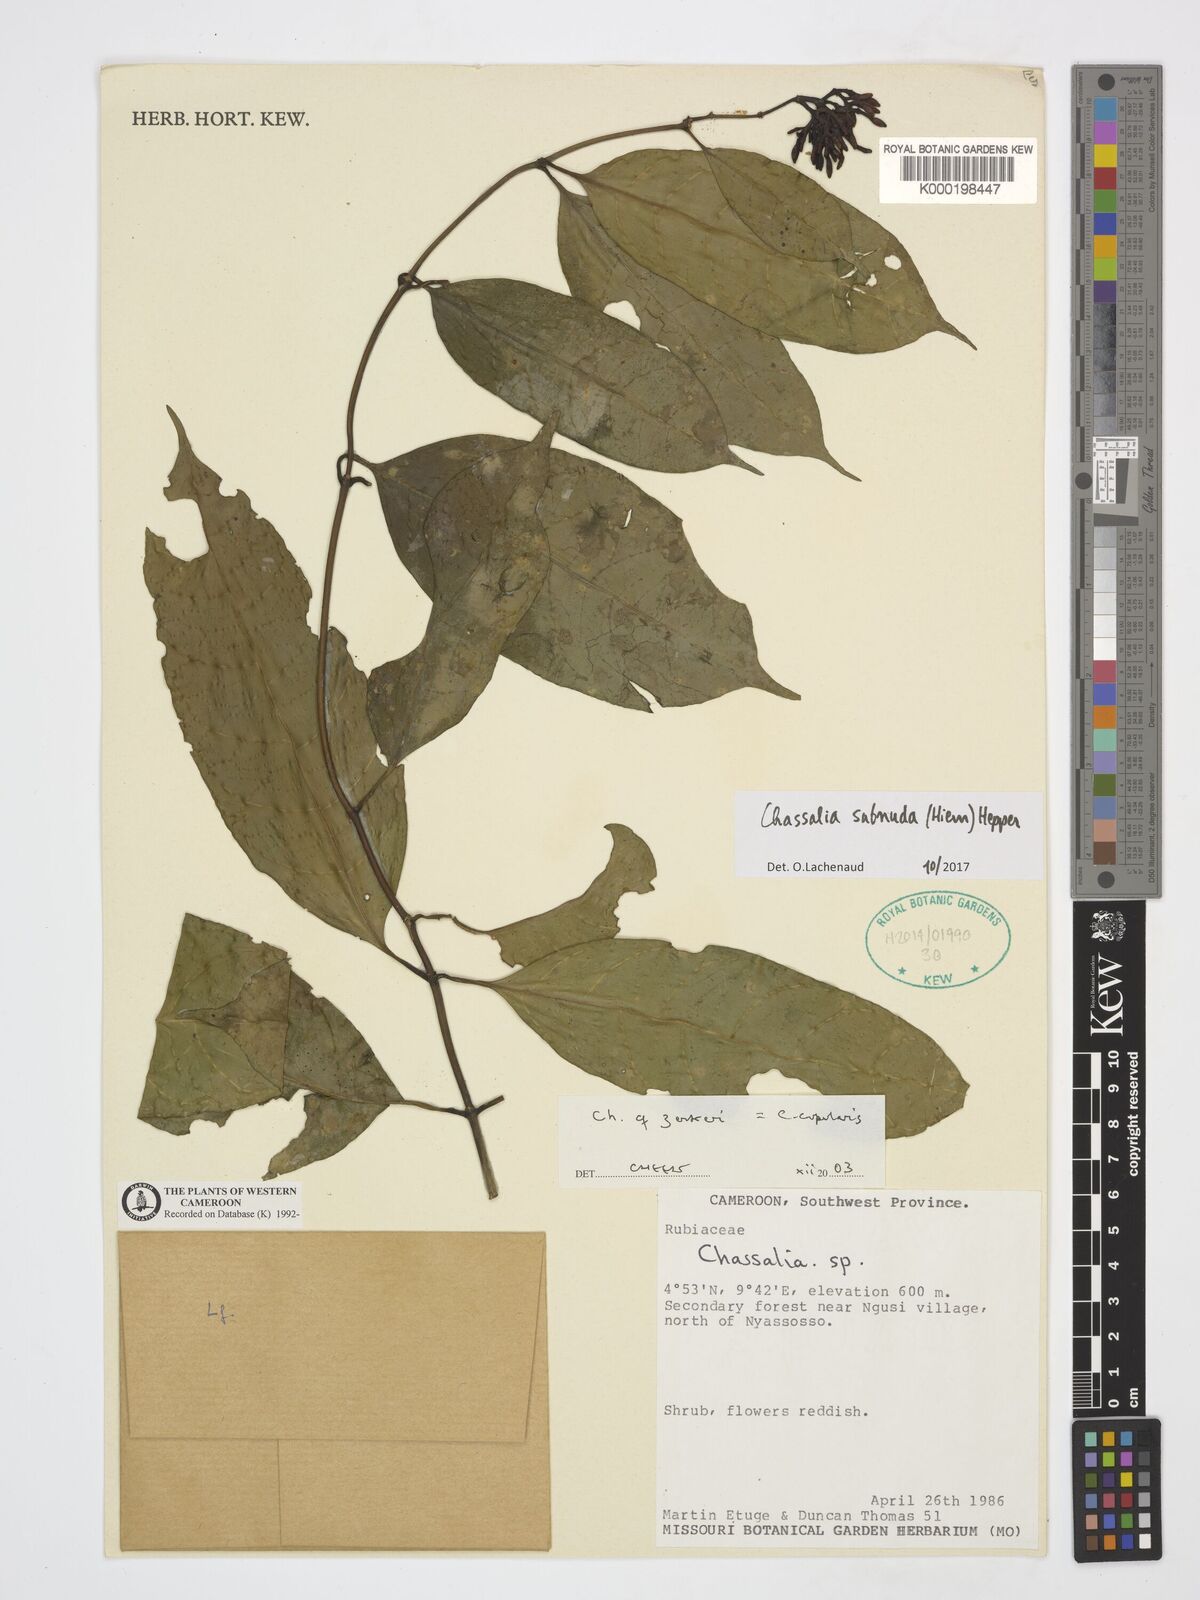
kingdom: Plantae
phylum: Tracheophyta
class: Magnoliopsida
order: Gentianales
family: Rubiaceae
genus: Chassalia
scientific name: Chassalia zenkeri
